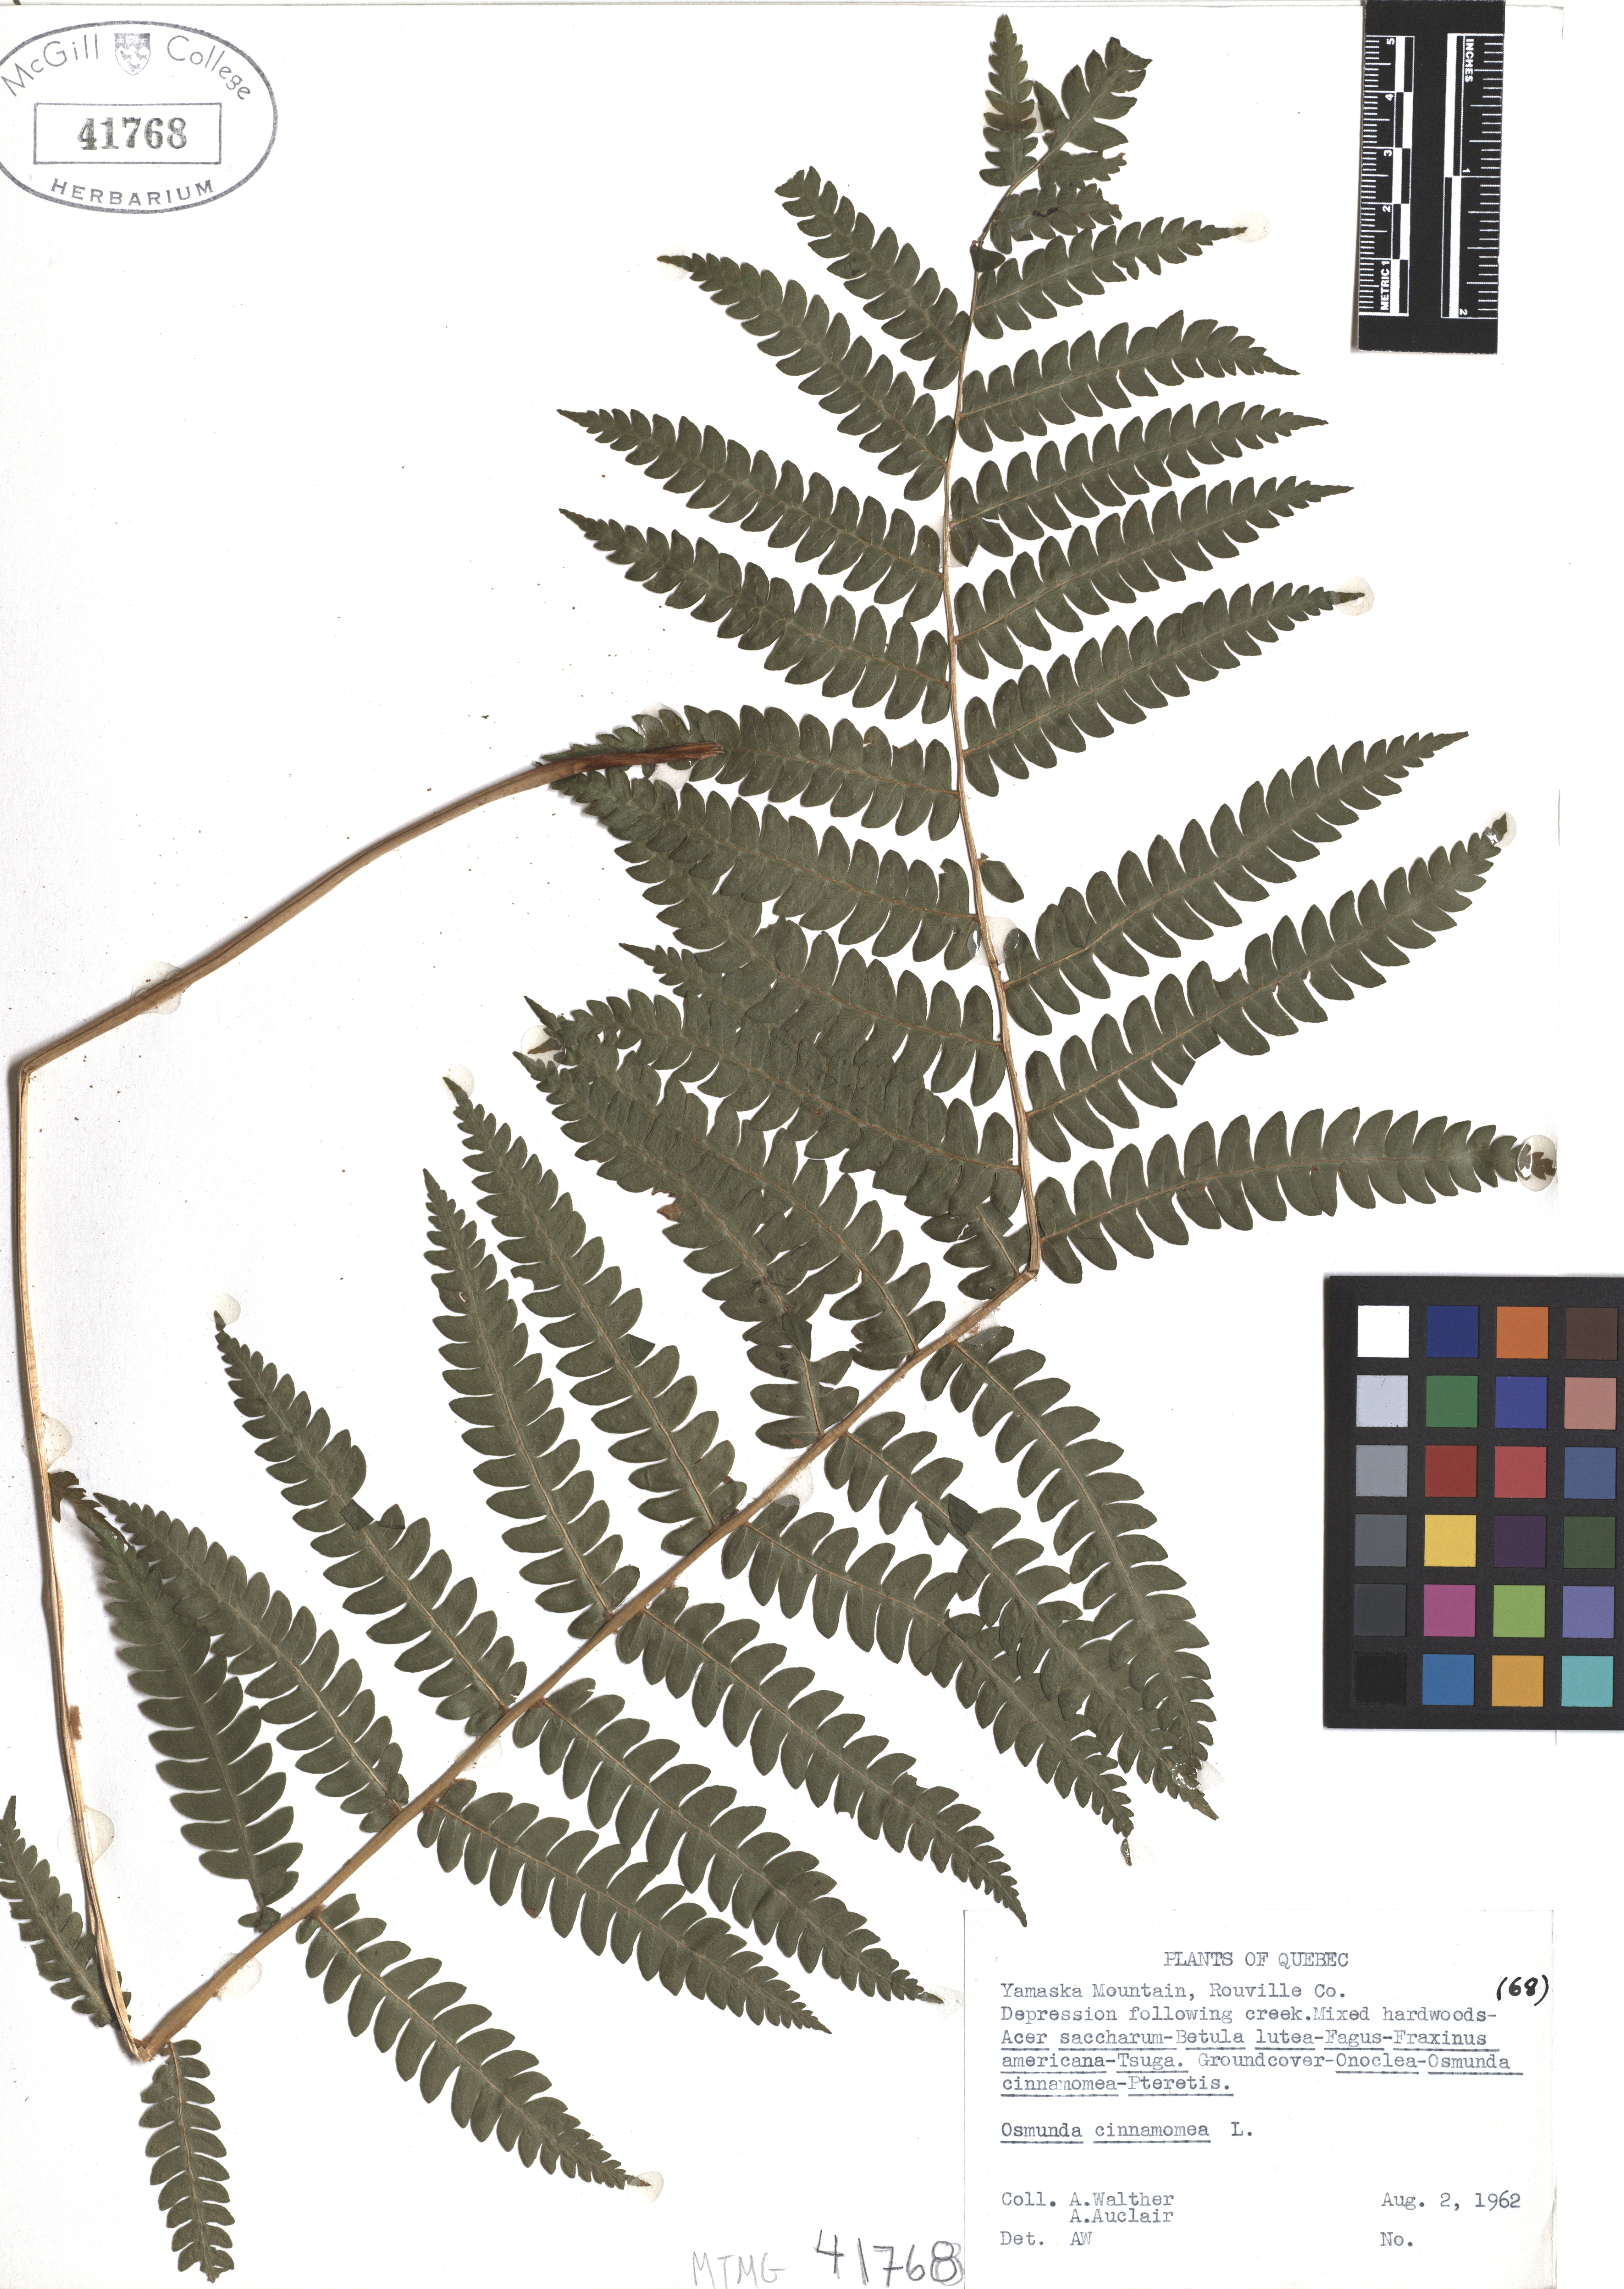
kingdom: Plantae
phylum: Tracheophyta
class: Polypodiopsida
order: Osmundales
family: Osmundaceae
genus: Osmundastrum
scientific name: Osmundastrum cinnamomeum
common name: Cinnamon fern
